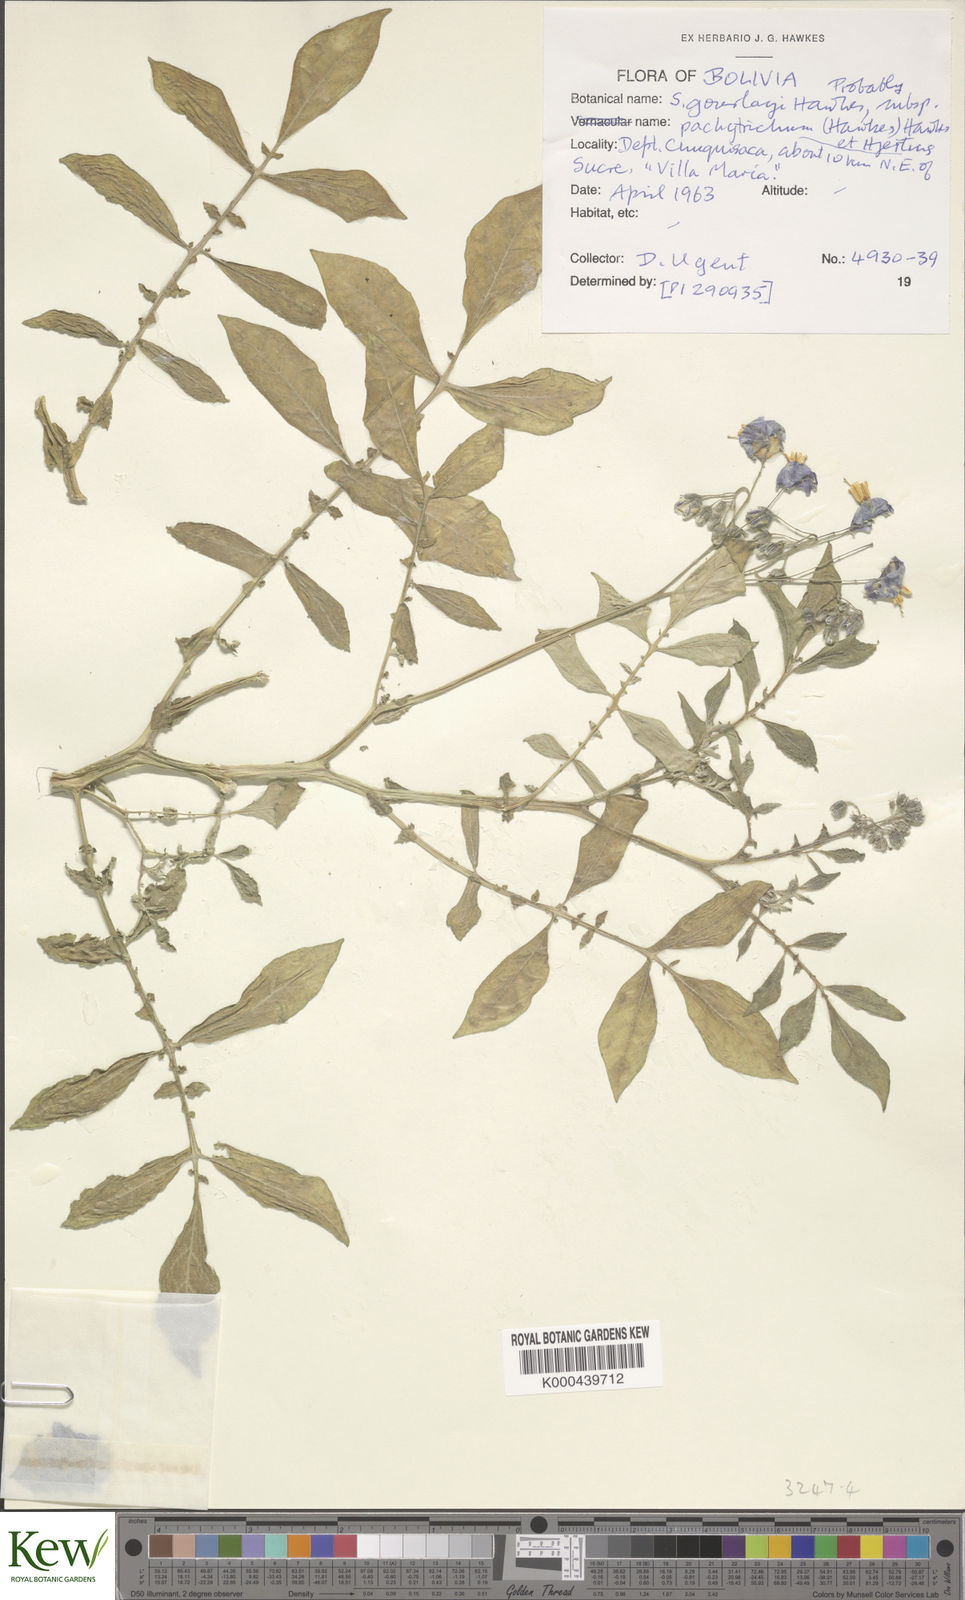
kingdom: Plantae
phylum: Tracheophyta
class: Magnoliopsida
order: Solanales
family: Solanaceae
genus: Solanum
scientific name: Solanum brevicaule
